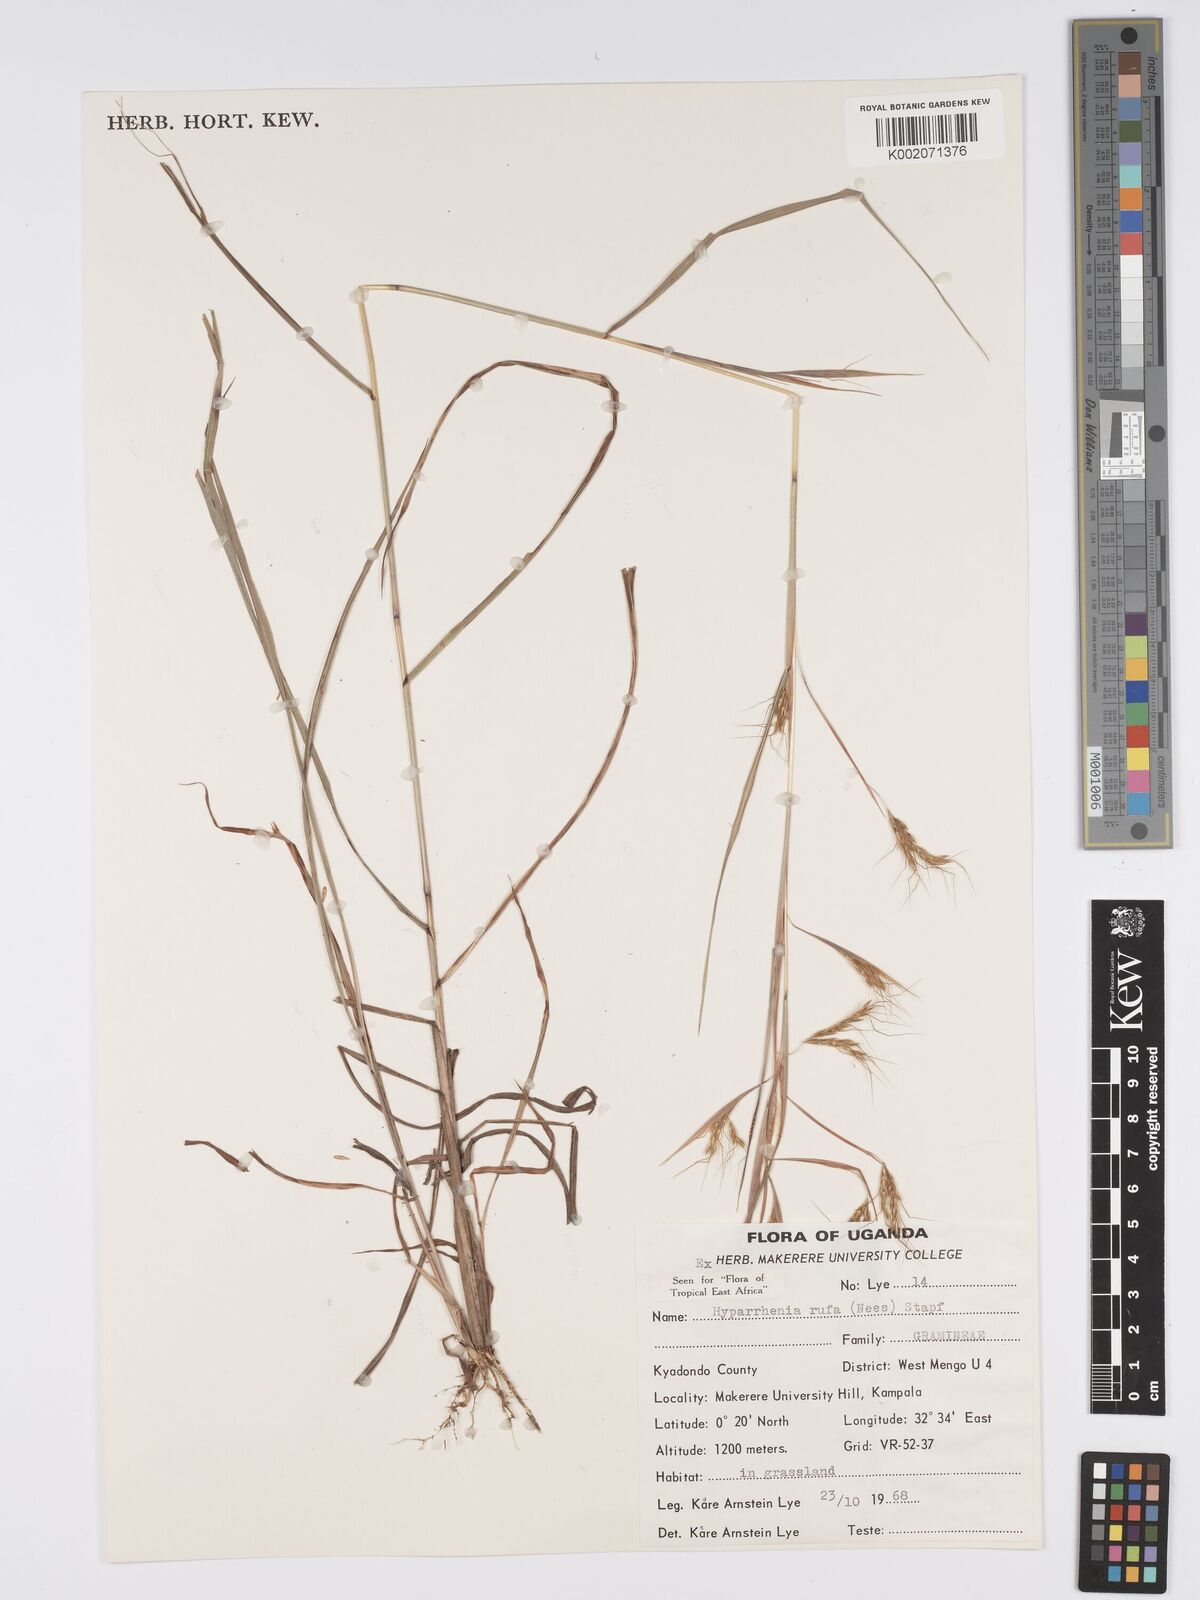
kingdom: Plantae
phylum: Tracheophyta
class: Liliopsida
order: Poales
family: Poaceae
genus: Hyparrhenia
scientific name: Hyparrhenia rufa
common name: Jaraguagrass
